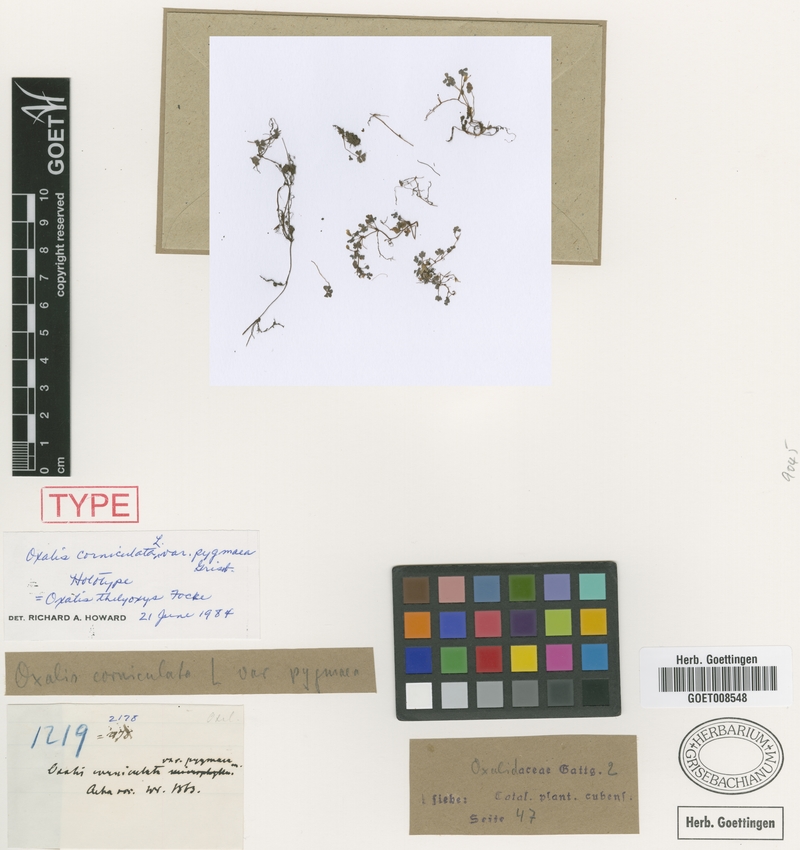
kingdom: Plantae
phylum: Tracheophyta
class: Magnoliopsida
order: Oxalidales
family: Oxalidaceae
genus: Oxalis
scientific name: Oxalis thelyoxys
